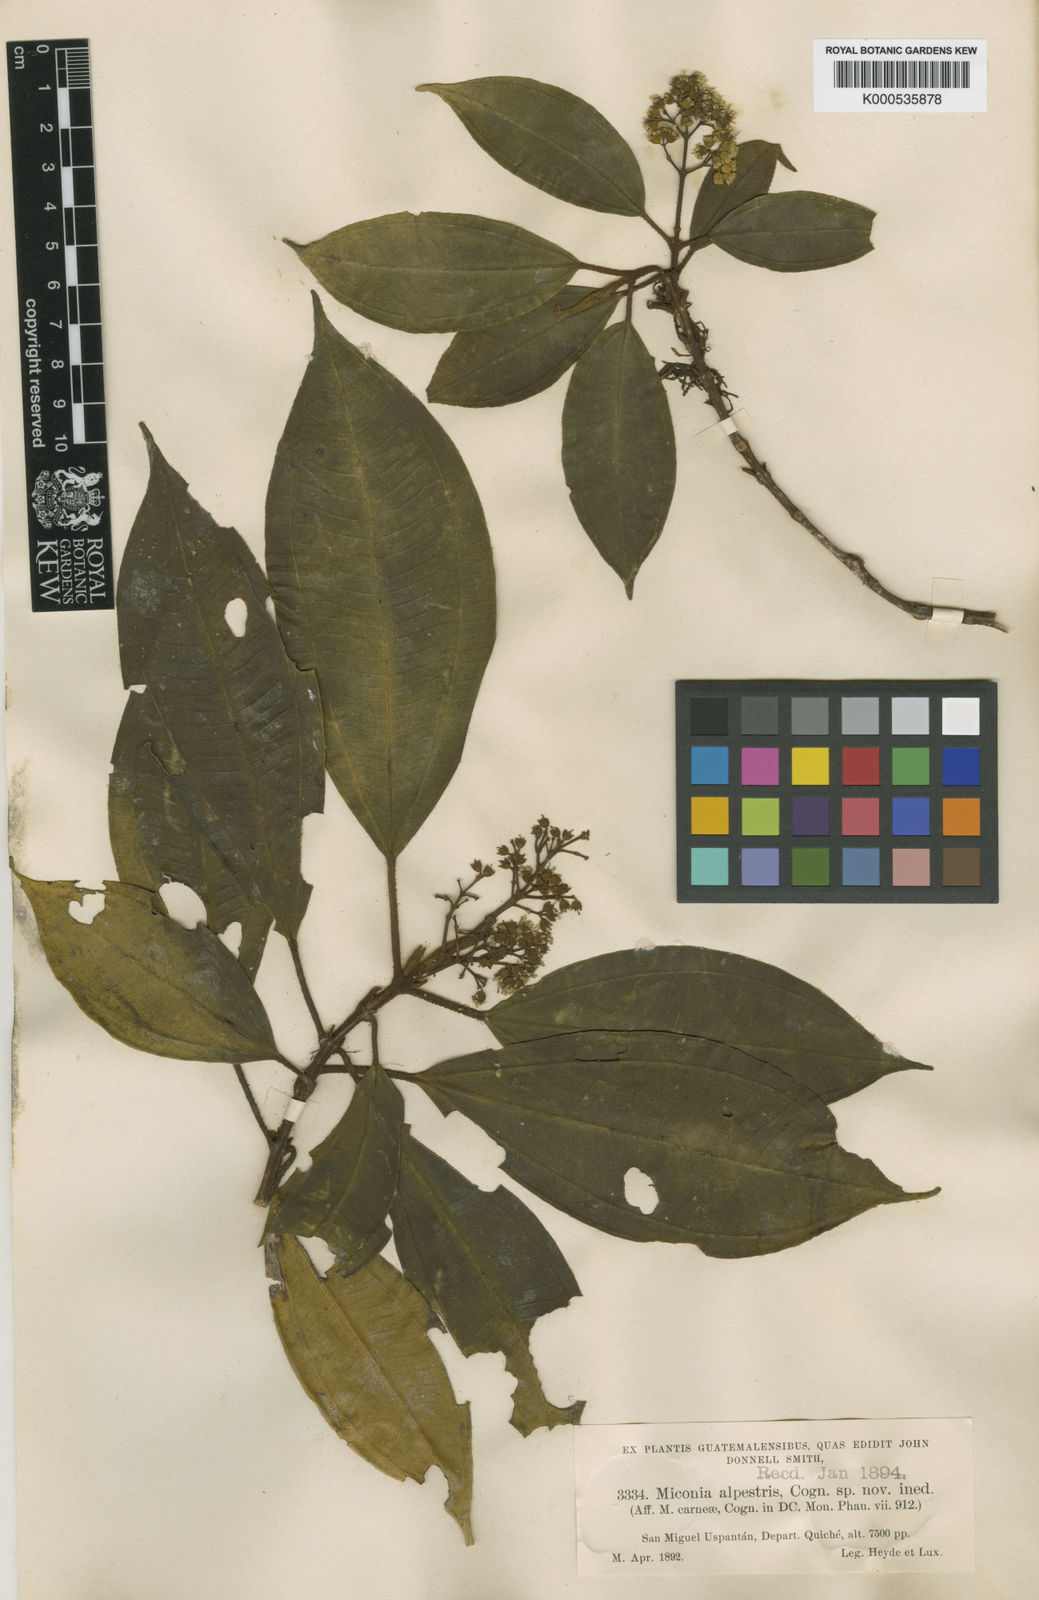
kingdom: Plantae
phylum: Tracheophyta
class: Magnoliopsida
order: Myrtales
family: Melastomataceae
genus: Miconia
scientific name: Miconia alpestris
